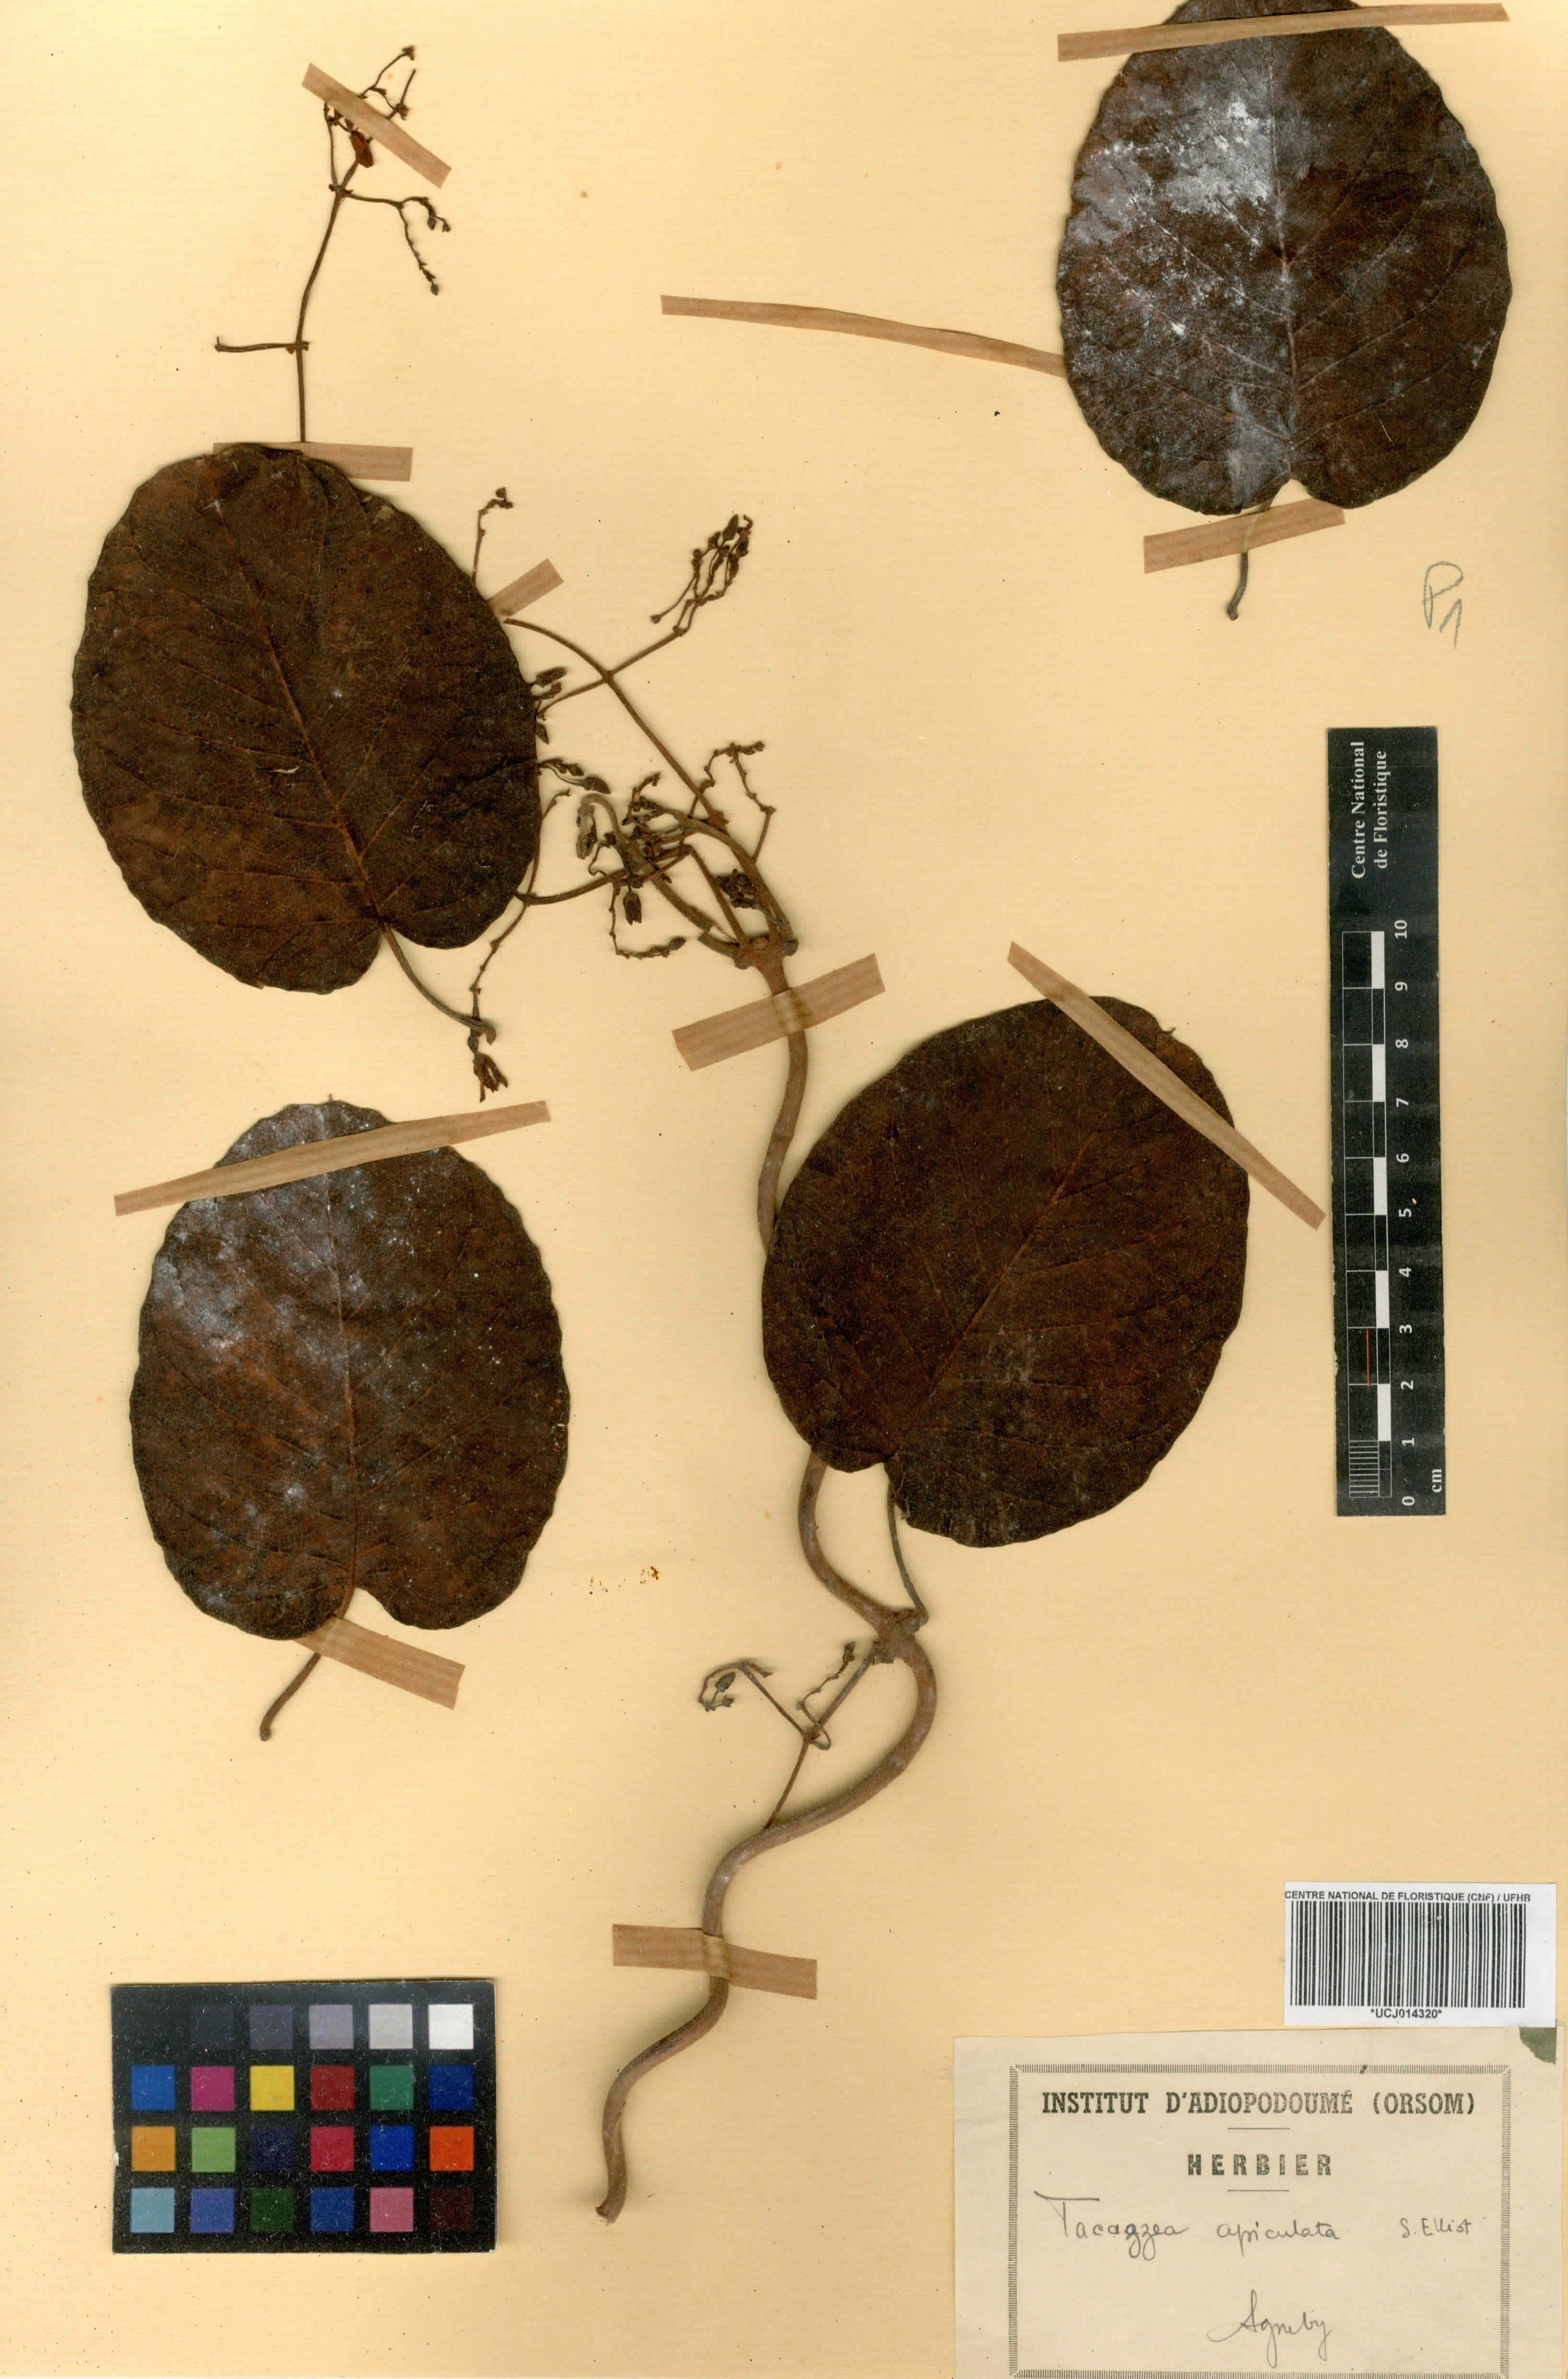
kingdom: Plantae
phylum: Tracheophyta
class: Magnoliopsida
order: Gentianales
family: Apocynaceae
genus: Tacazzea
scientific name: Tacazzea apiculata
